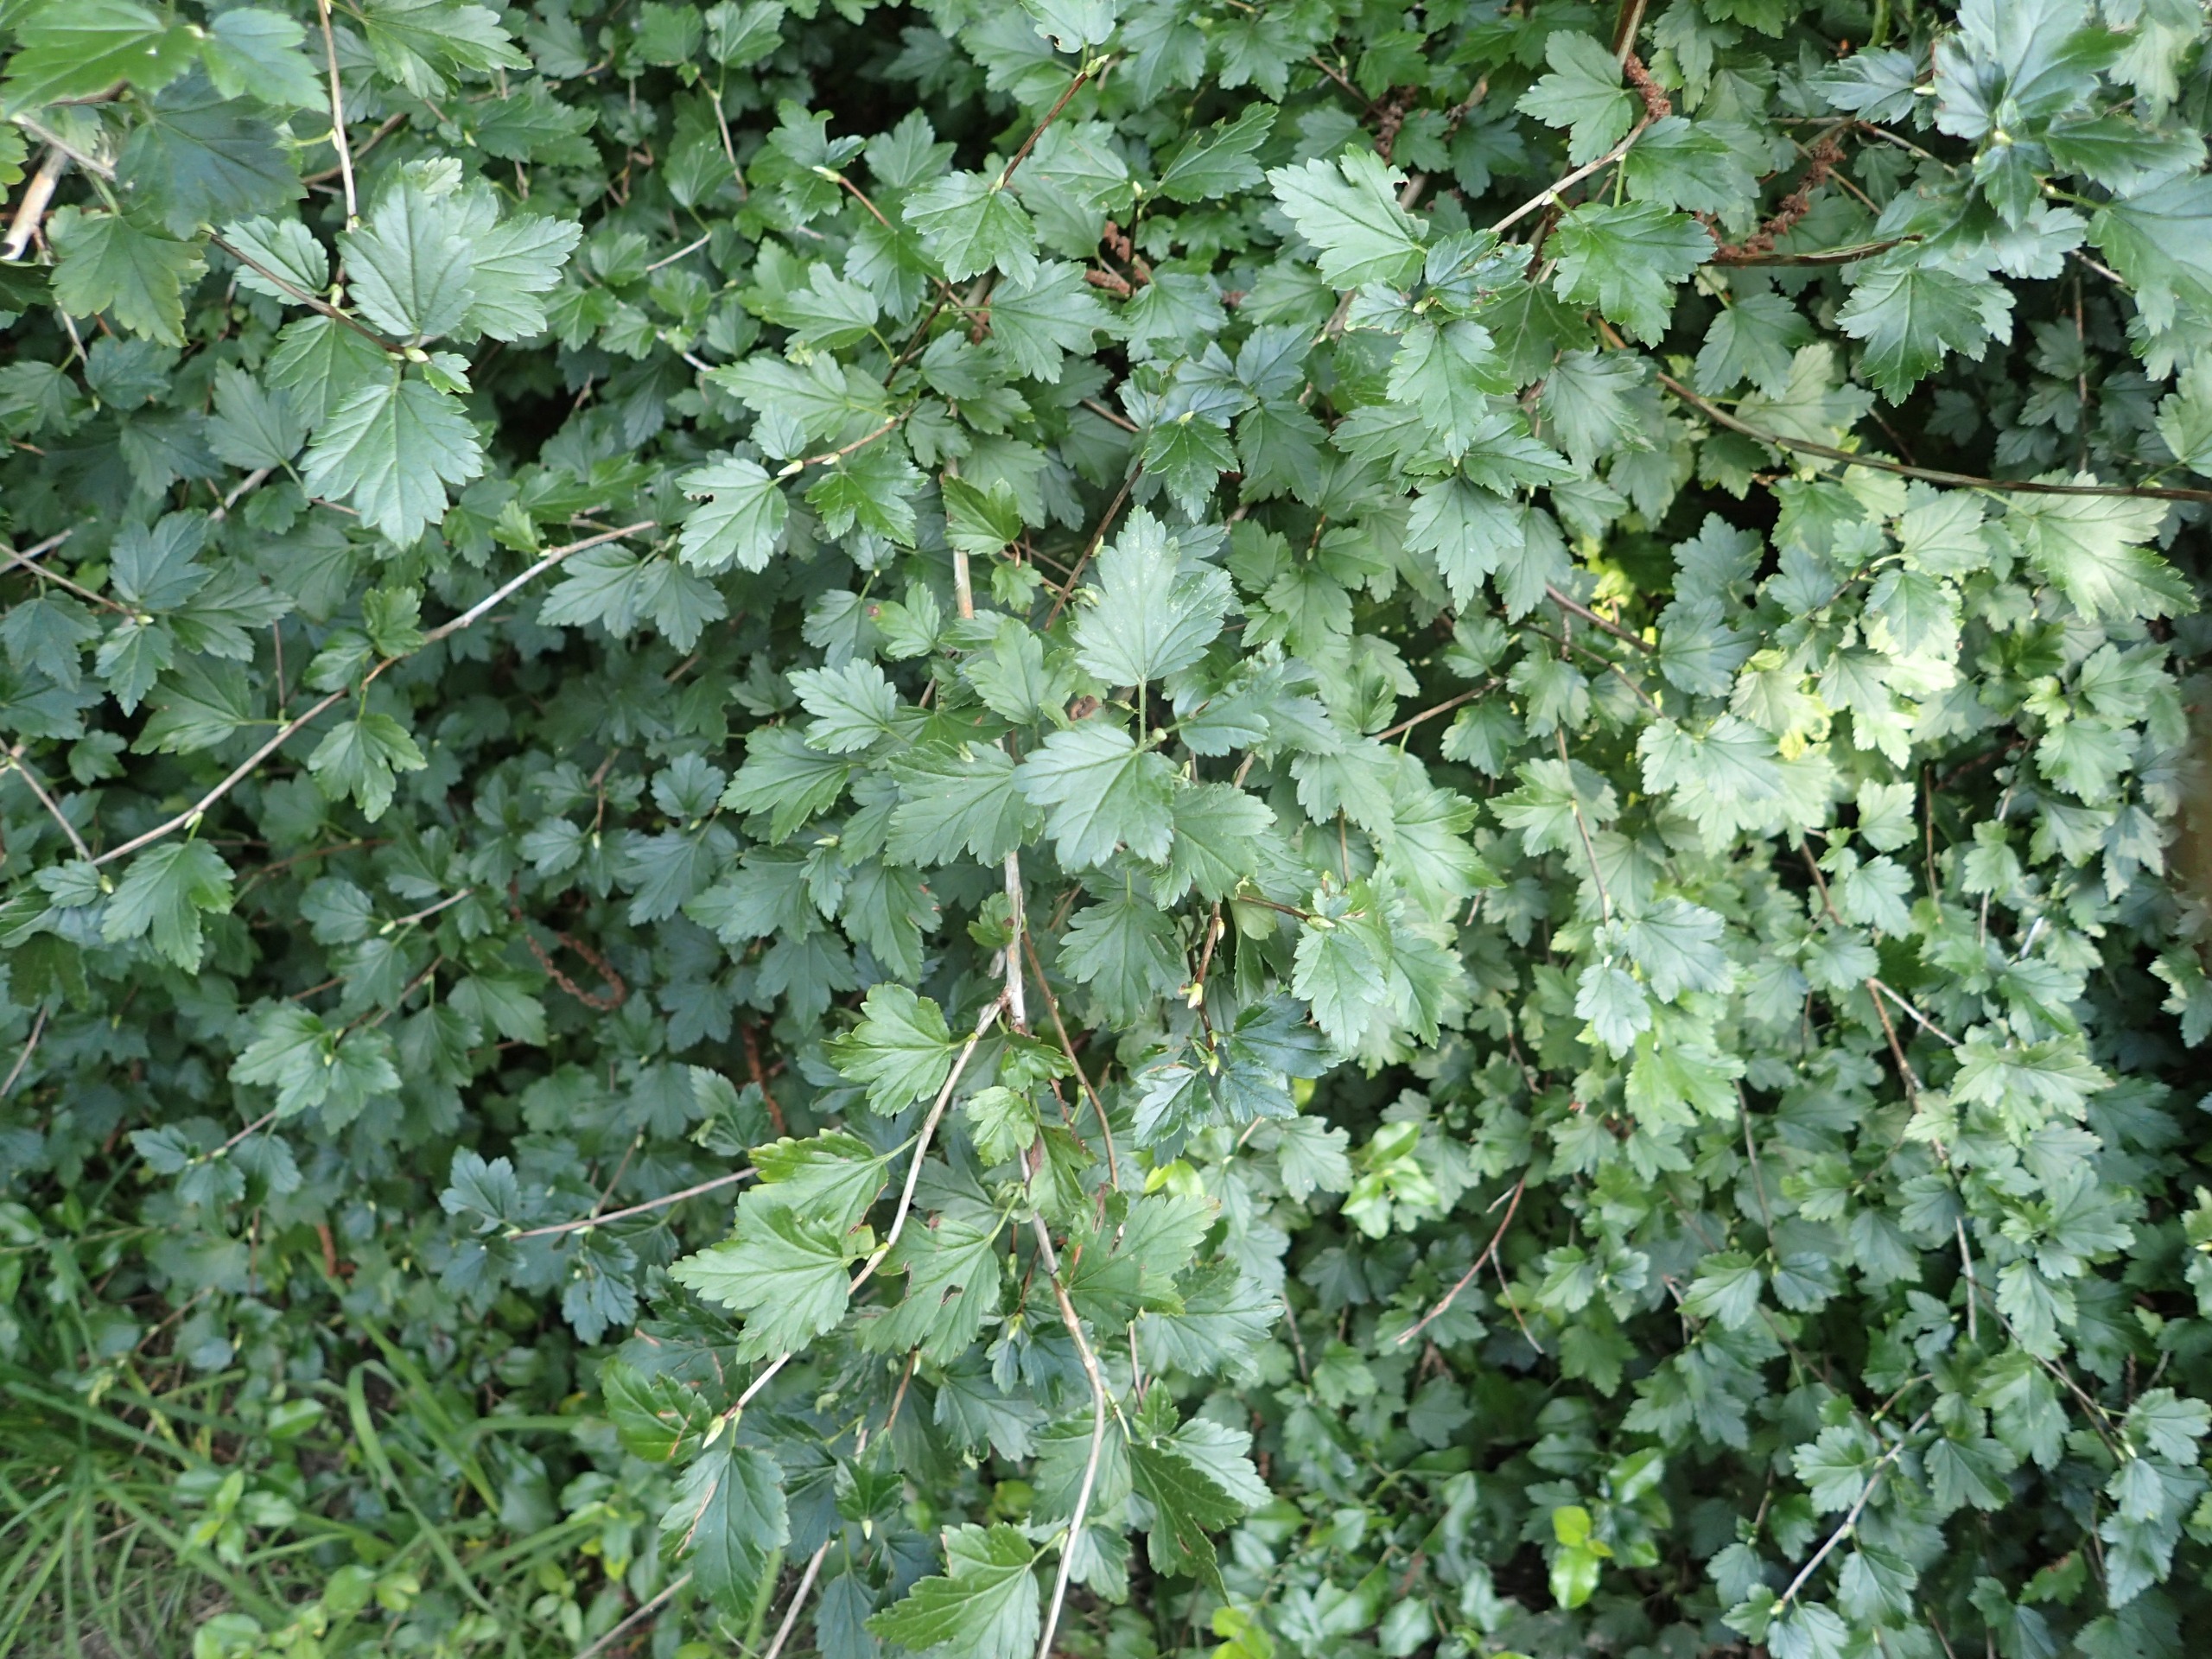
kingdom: Plantae
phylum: Tracheophyta
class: Magnoliopsida
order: Saxifragales
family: Grossulariaceae
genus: Ribes
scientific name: Ribes alpinum
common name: Fjeld-ribs
